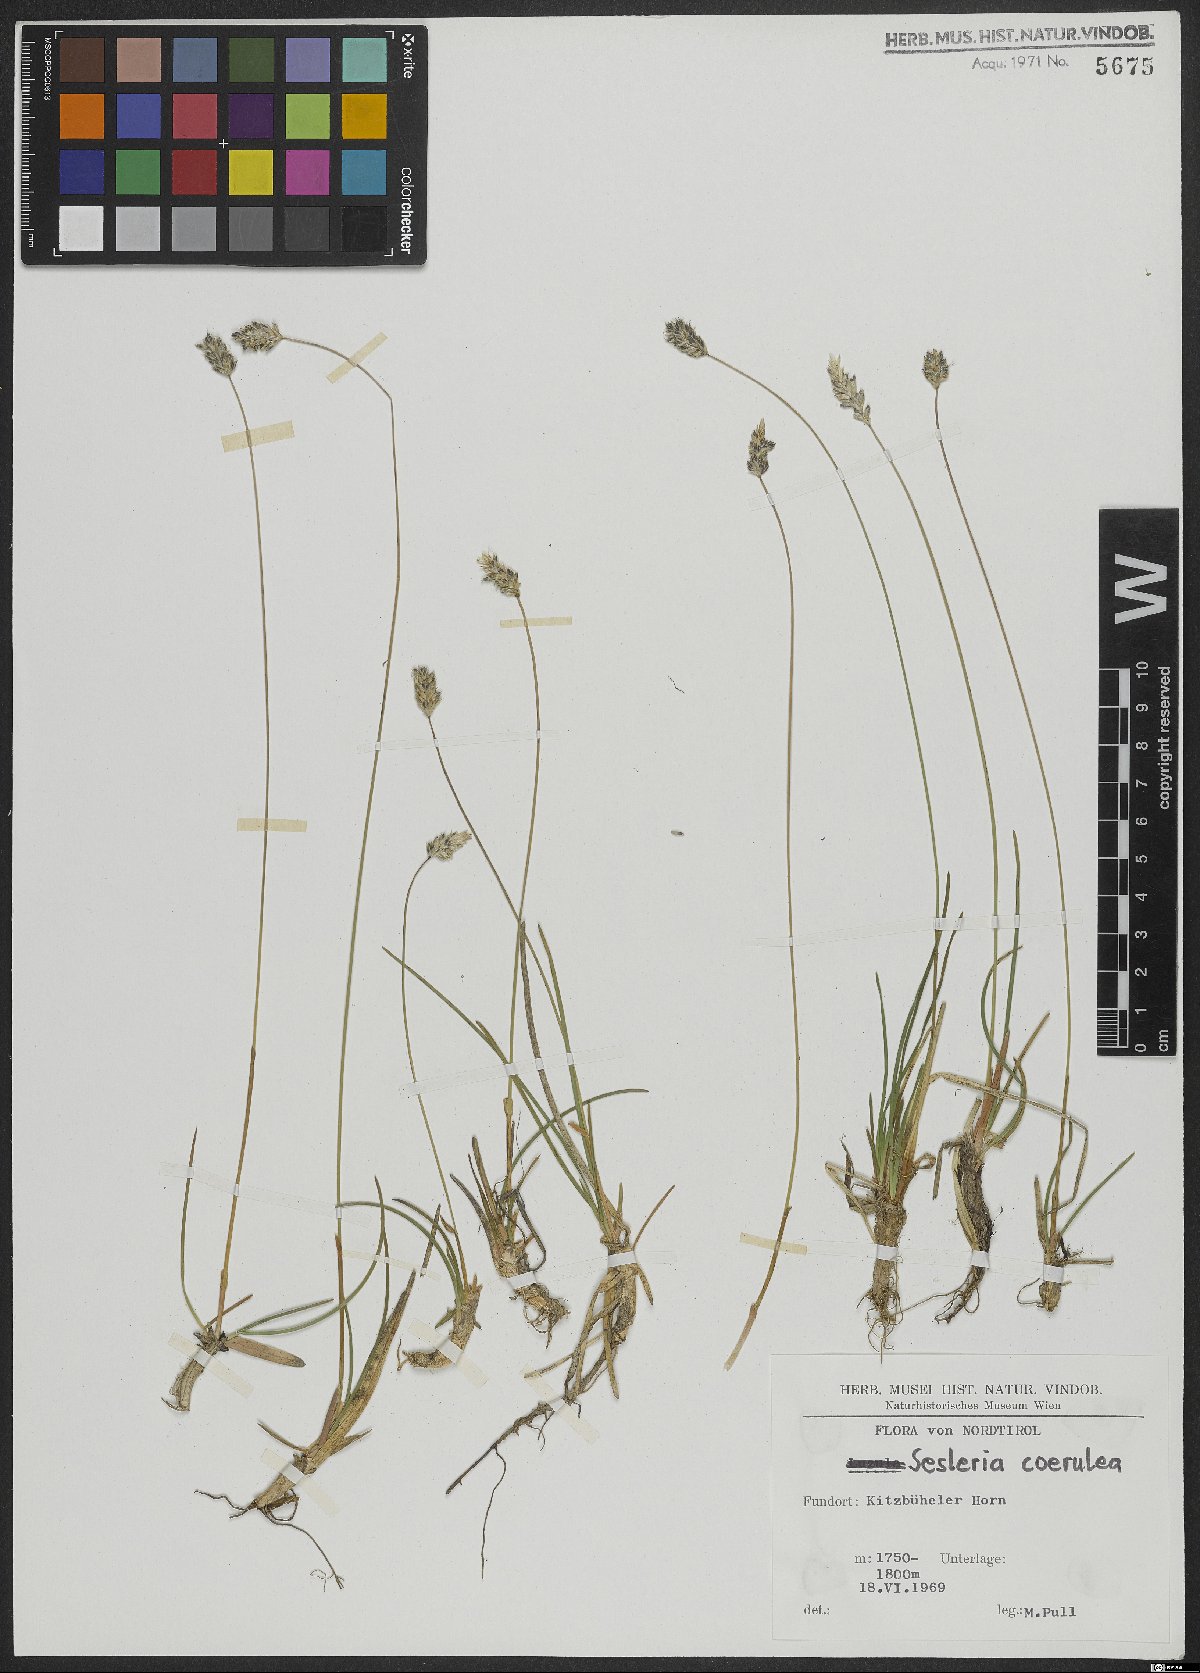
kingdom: Plantae
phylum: Tracheophyta
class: Liliopsida
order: Poales
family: Poaceae
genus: Sesleria
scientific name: Sesleria caerulea
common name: Blue moor-grass
